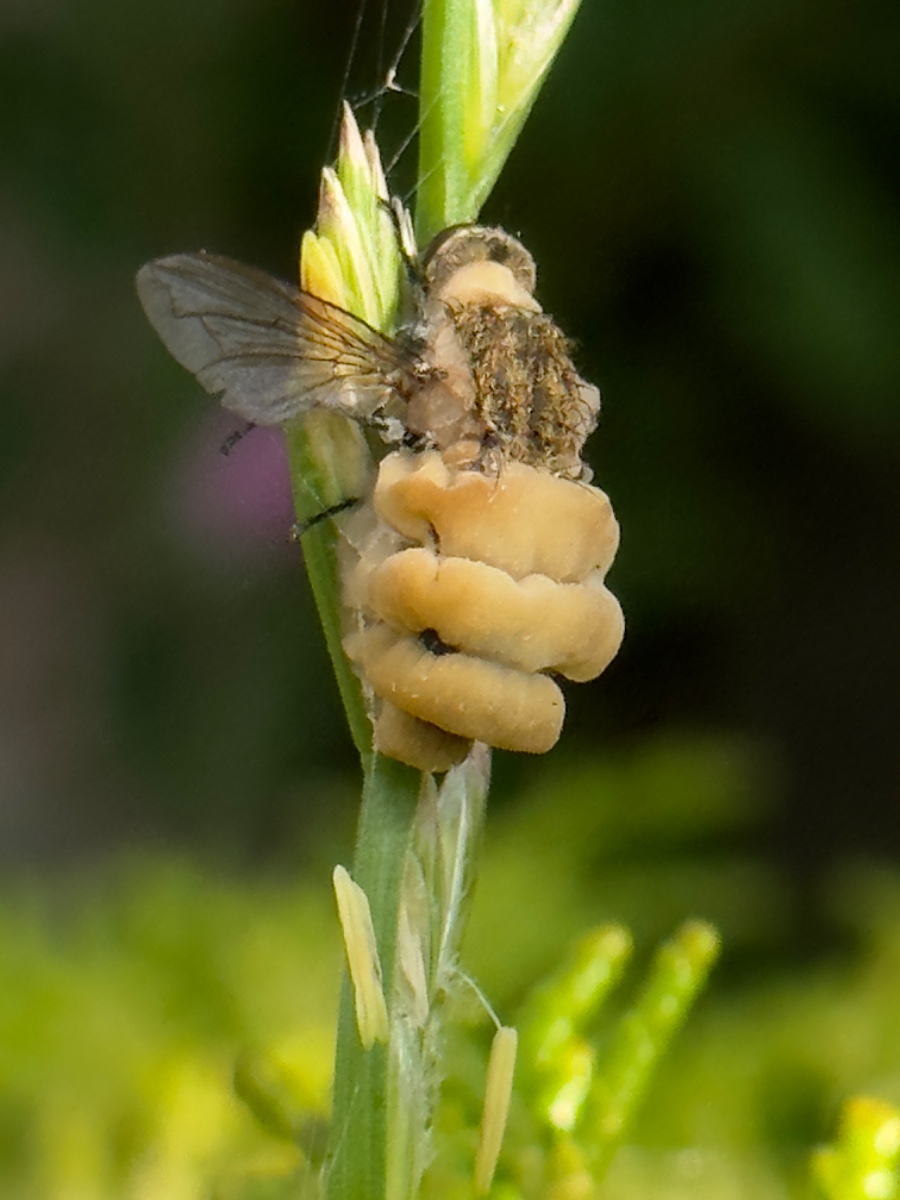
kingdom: Fungi
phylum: Entomophthoromycota
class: Entomophthoromycetes
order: Entomophthorales
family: Entomophthoraceae
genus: Entomophthora
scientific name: Entomophthora muscae
